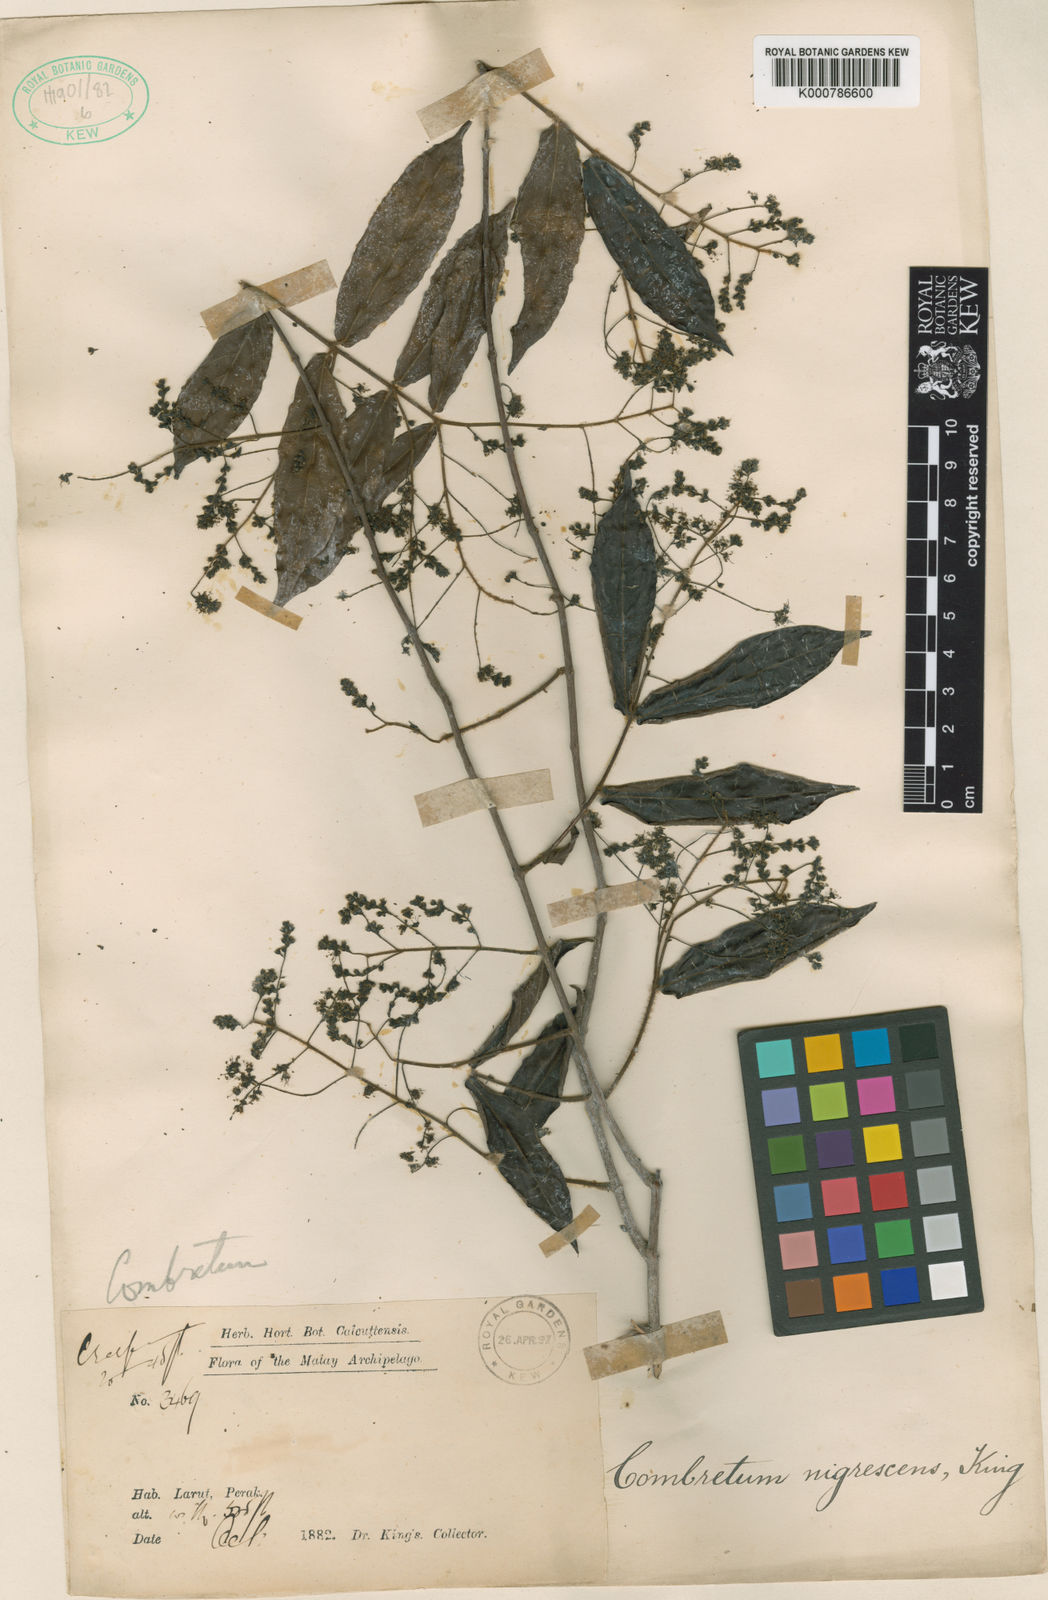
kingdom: Plantae
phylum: Tracheophyta
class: Magnoliopsida
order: Myrtales
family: Combretaceae
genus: Combretum
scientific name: Combretum nigrescens
